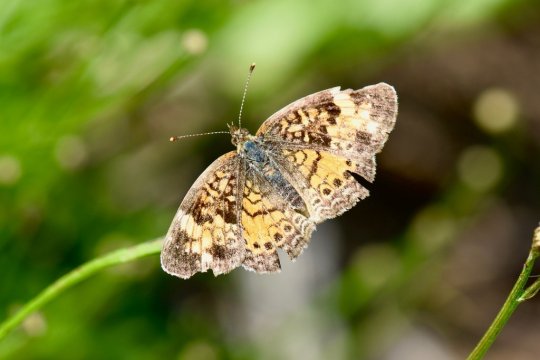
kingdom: Animalia
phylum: Arthropoda
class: Insecta
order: Lepidoptera
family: Nymphalidae
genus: Phyciodes
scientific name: Phyciodes tharos
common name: Pearl Crescent
